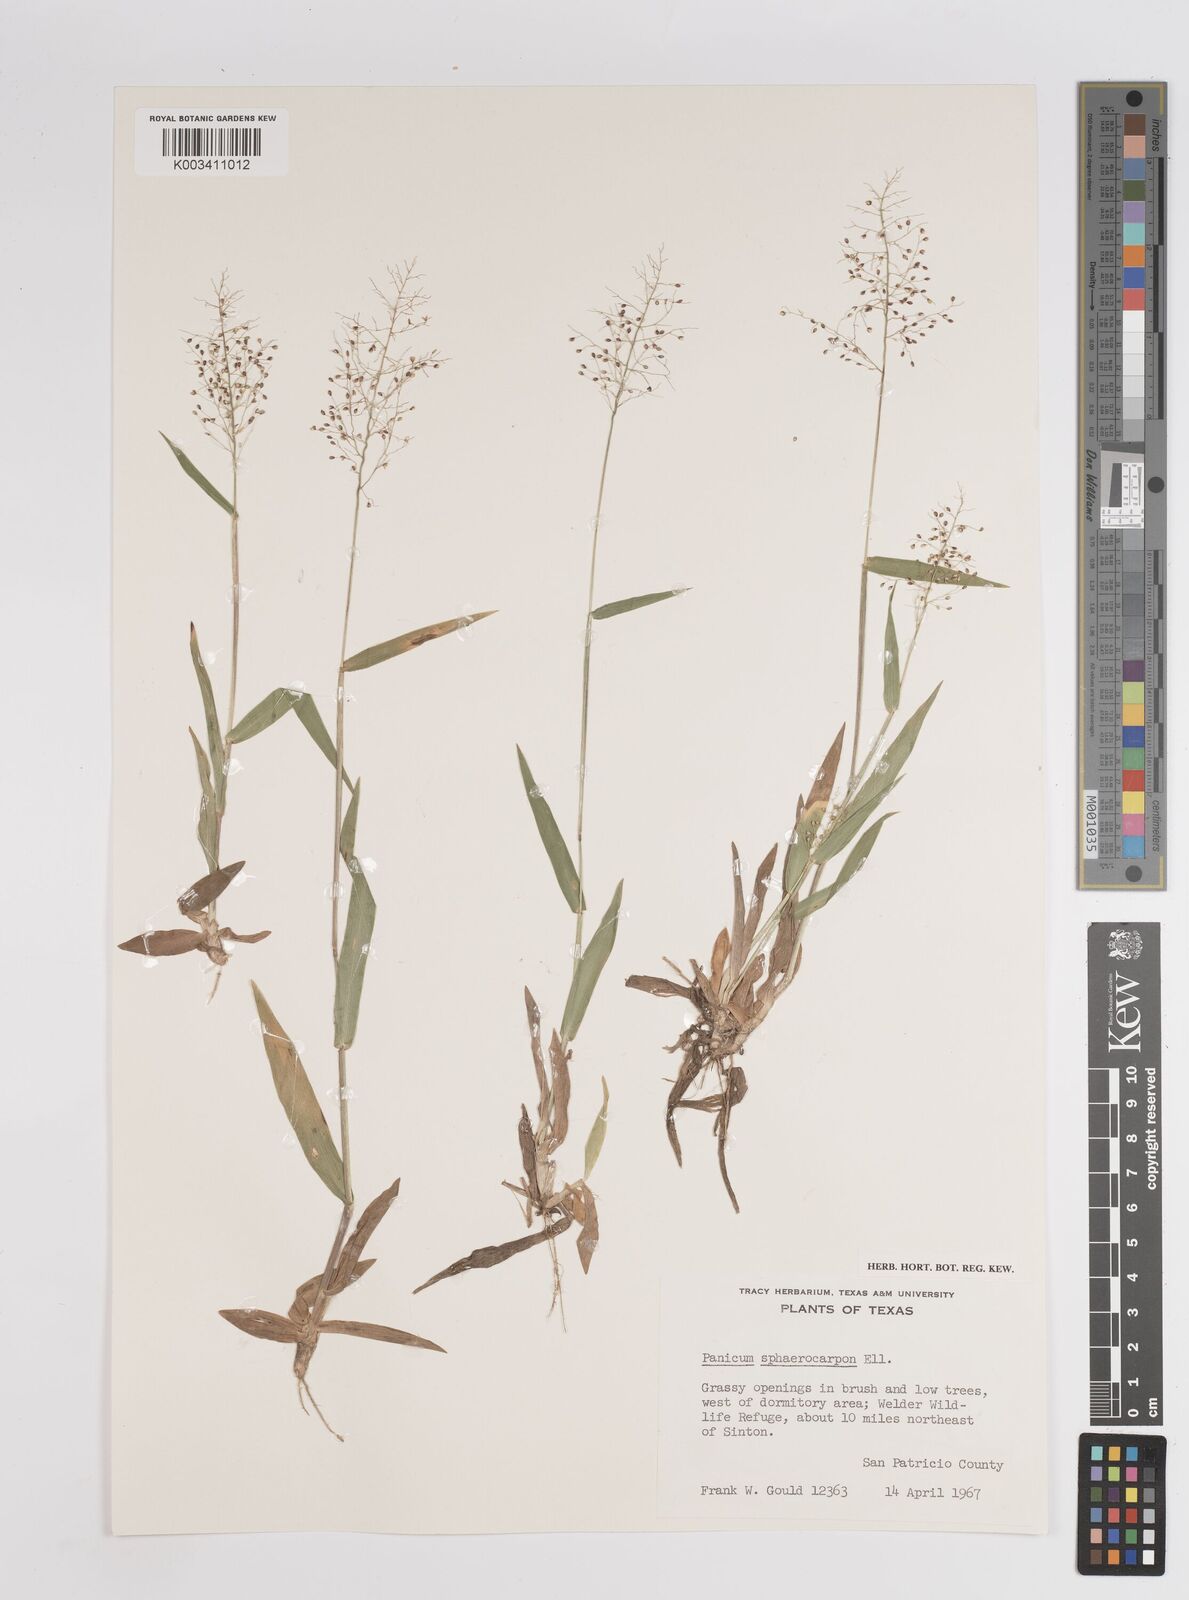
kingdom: Plantae
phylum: Tracheophyta
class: Liliopsida
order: Poales
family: Poaceae
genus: Setaria
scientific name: Setaria tenax
